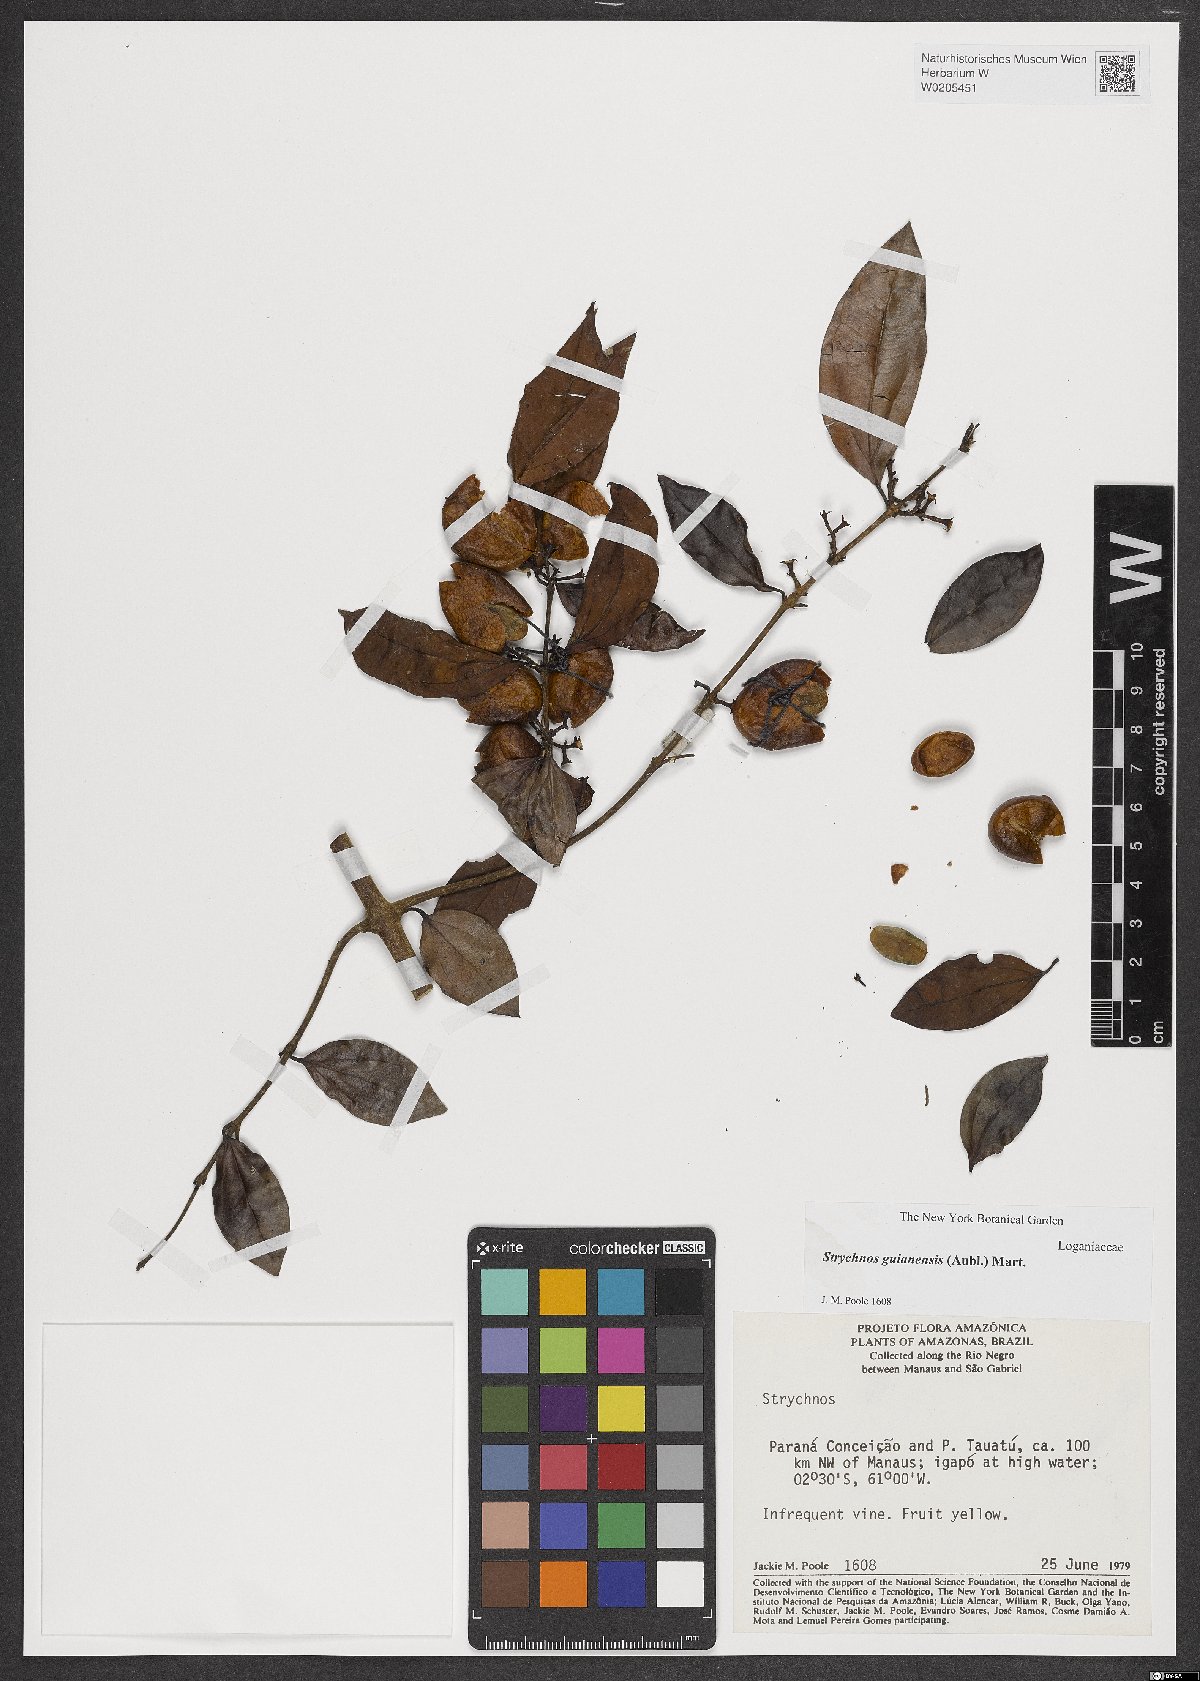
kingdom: Plantae
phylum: Tracheophyta
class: Magnoliopsida
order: Gentianales
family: Loganiaceae
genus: Strychnos
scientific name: Strychnos guianensis
